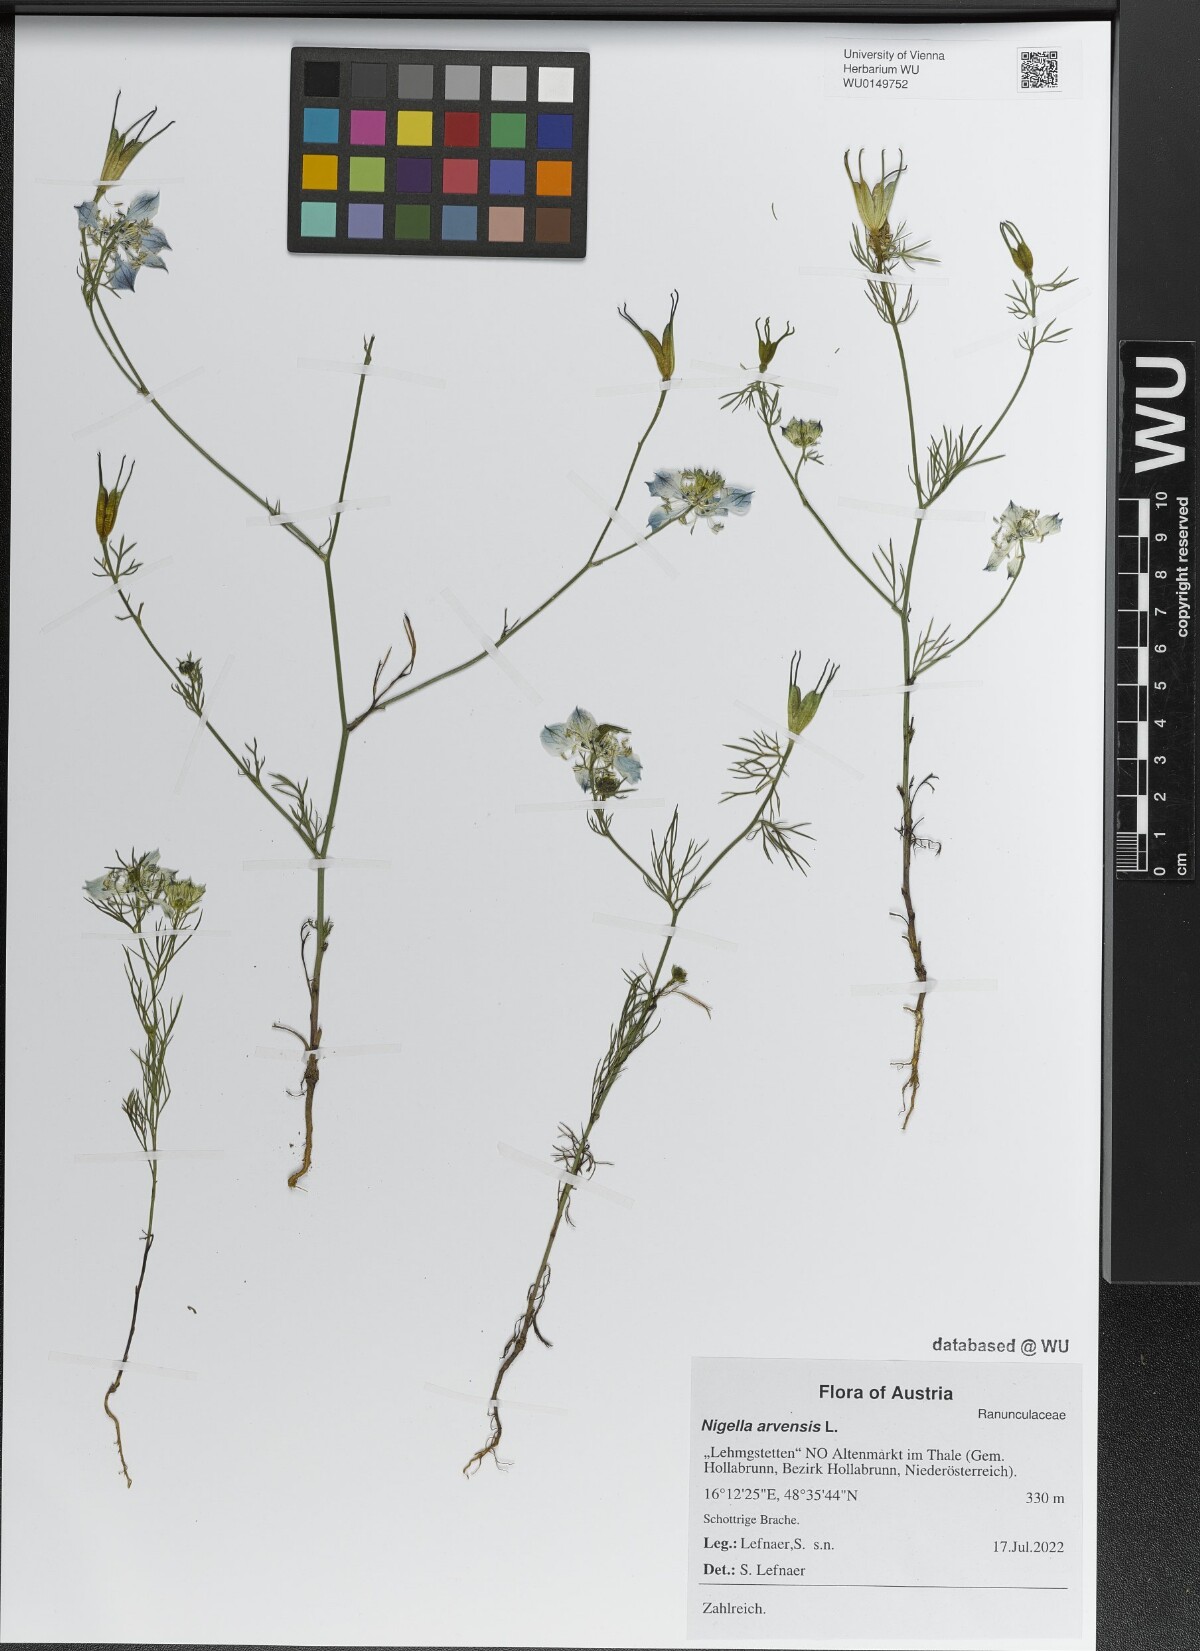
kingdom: Plantae
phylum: Tracheophyta
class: Magnoliopsida
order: Ranunculales
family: Ranunculaceae
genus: Nigella
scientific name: Nigella arvensis
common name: Wild fennel-flower
